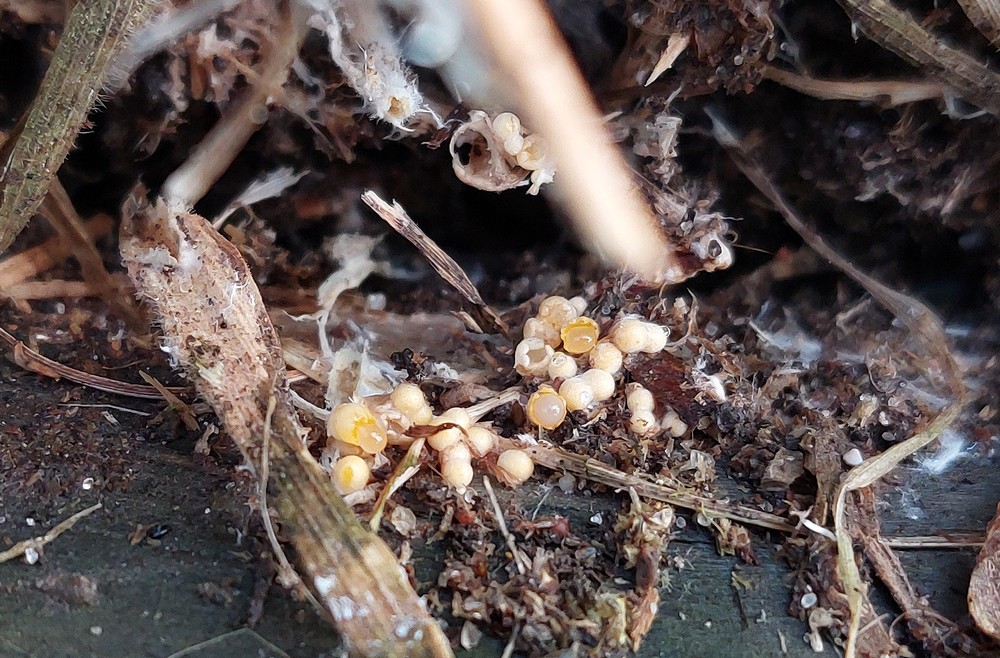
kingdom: Fungi
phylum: Basidiomycota
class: Agaricomycetes
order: Geastrales
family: Geastraceae
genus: Sphaerobolus
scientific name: Sphaerobolus stellatus
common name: bombekaster
